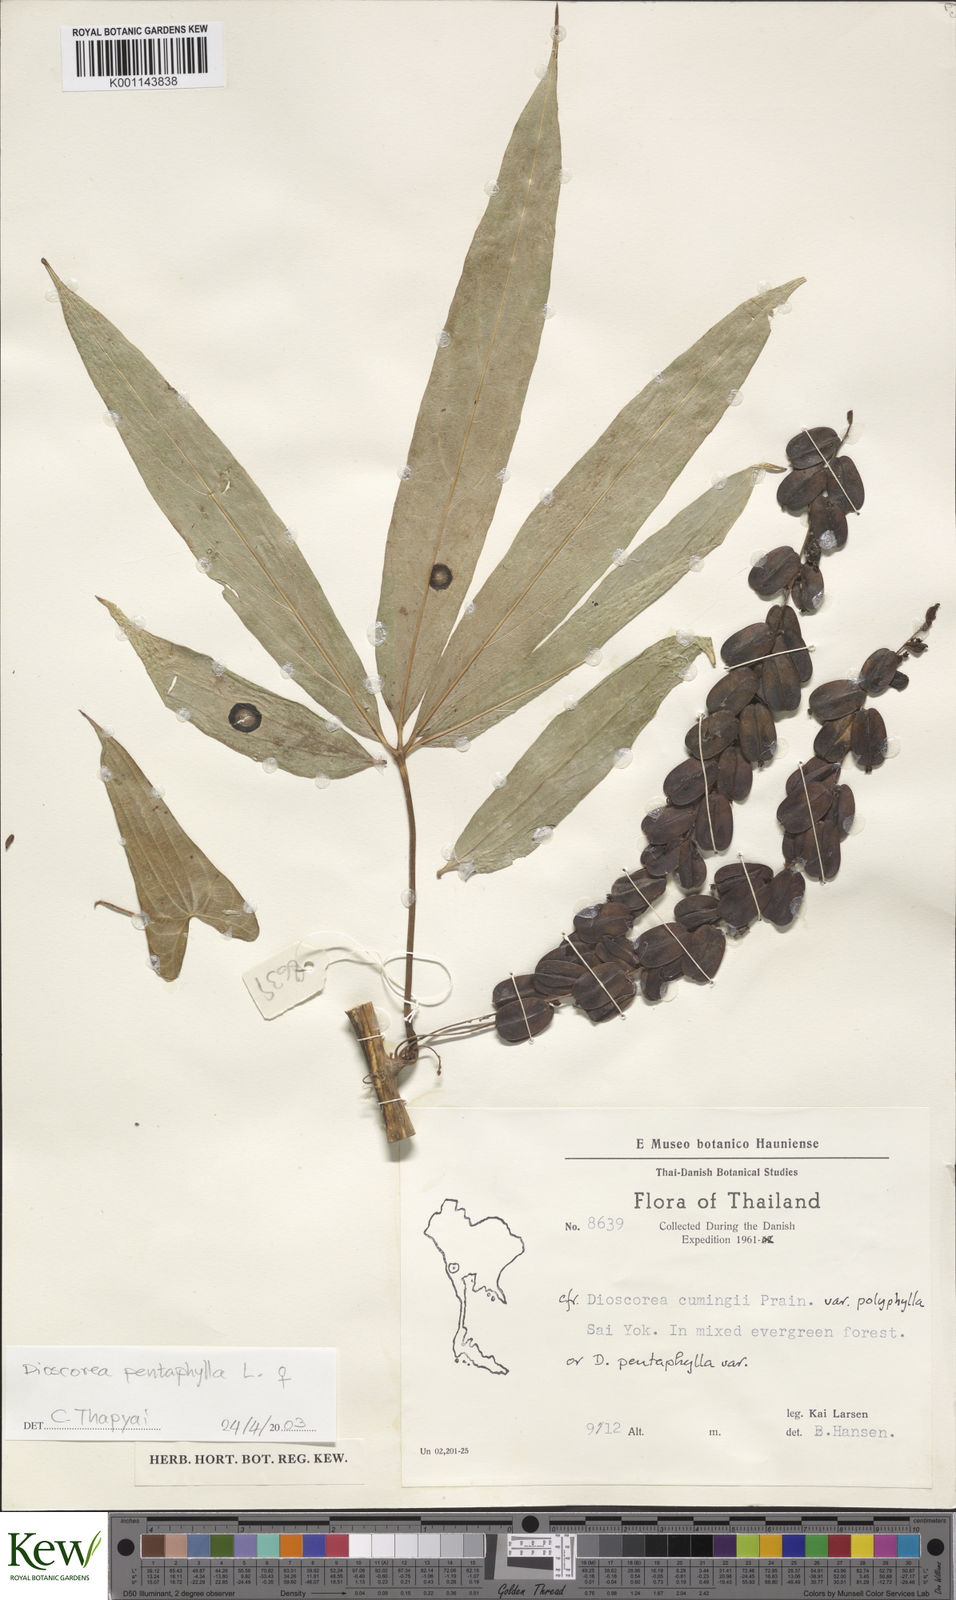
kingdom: Plantae
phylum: Tracheophyta
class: Liliopsida
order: Dioscoreales
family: Dioscoreaceae
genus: Dioscorea
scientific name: Dioscorea pentaphylla
